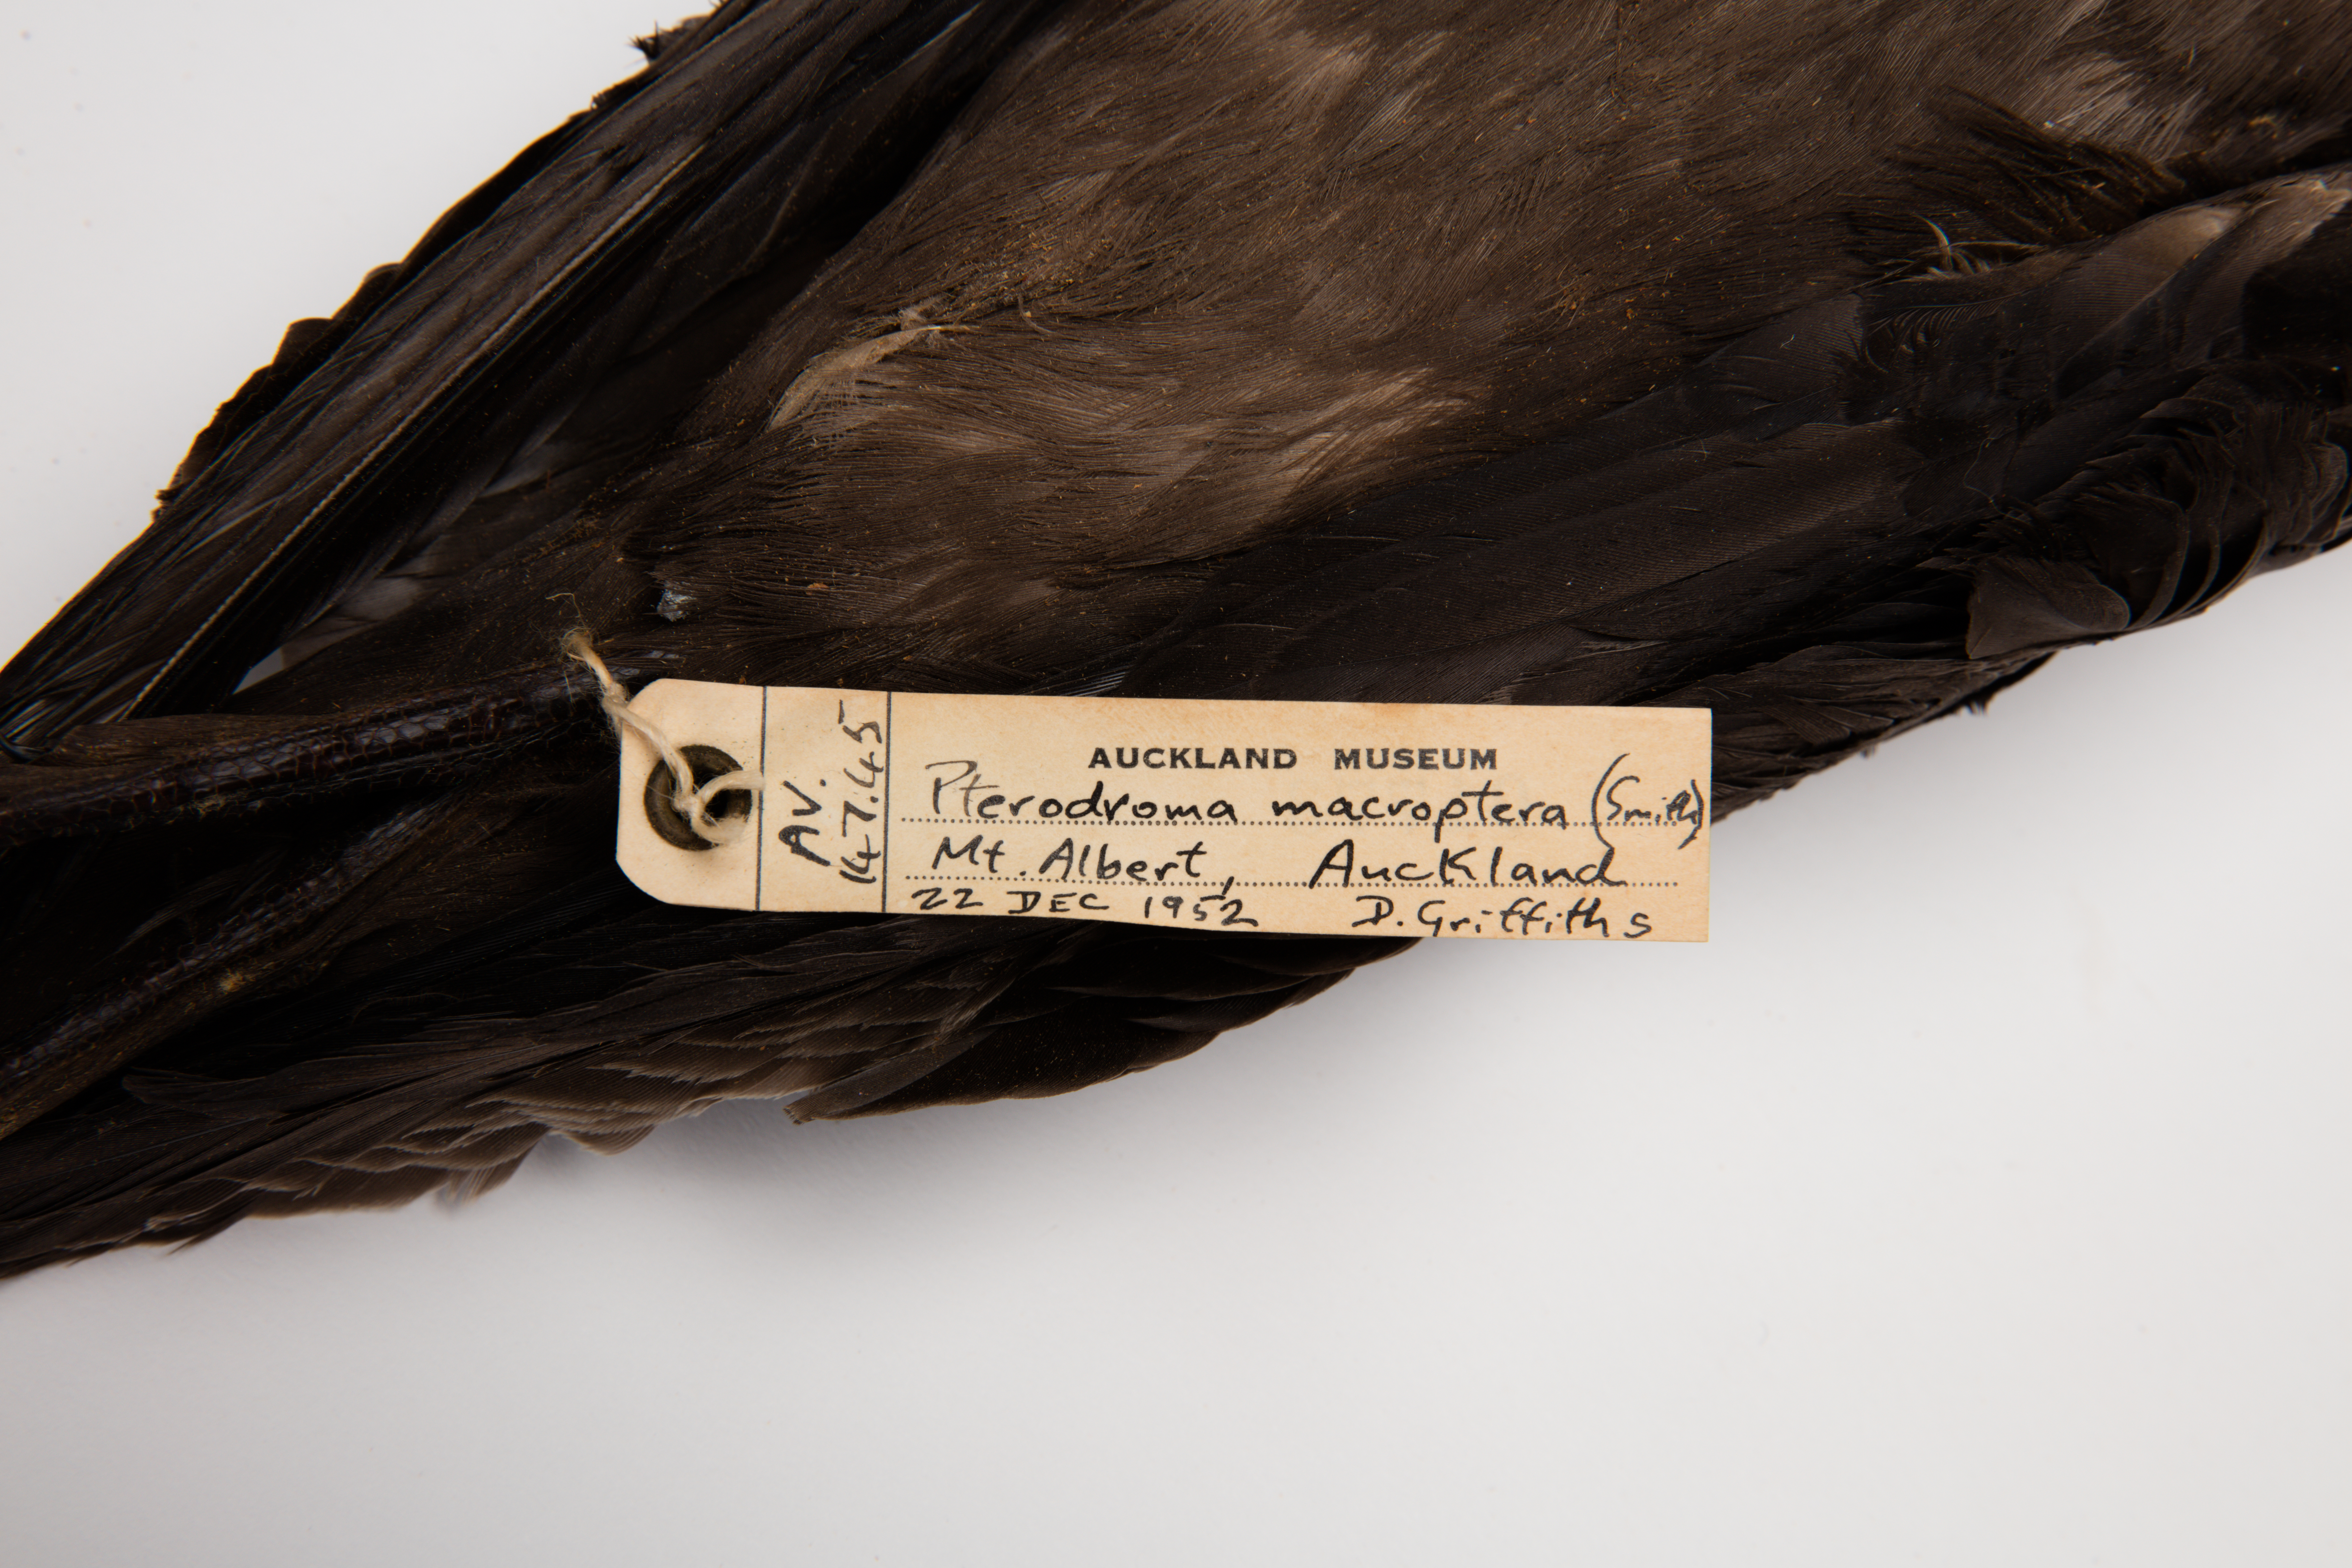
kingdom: Animalia
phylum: Chordata
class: Aves
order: Procellariiformes
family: Procellariidae
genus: Pterodroma
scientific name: Pterodroma macroptera
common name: Great-winged petrel
